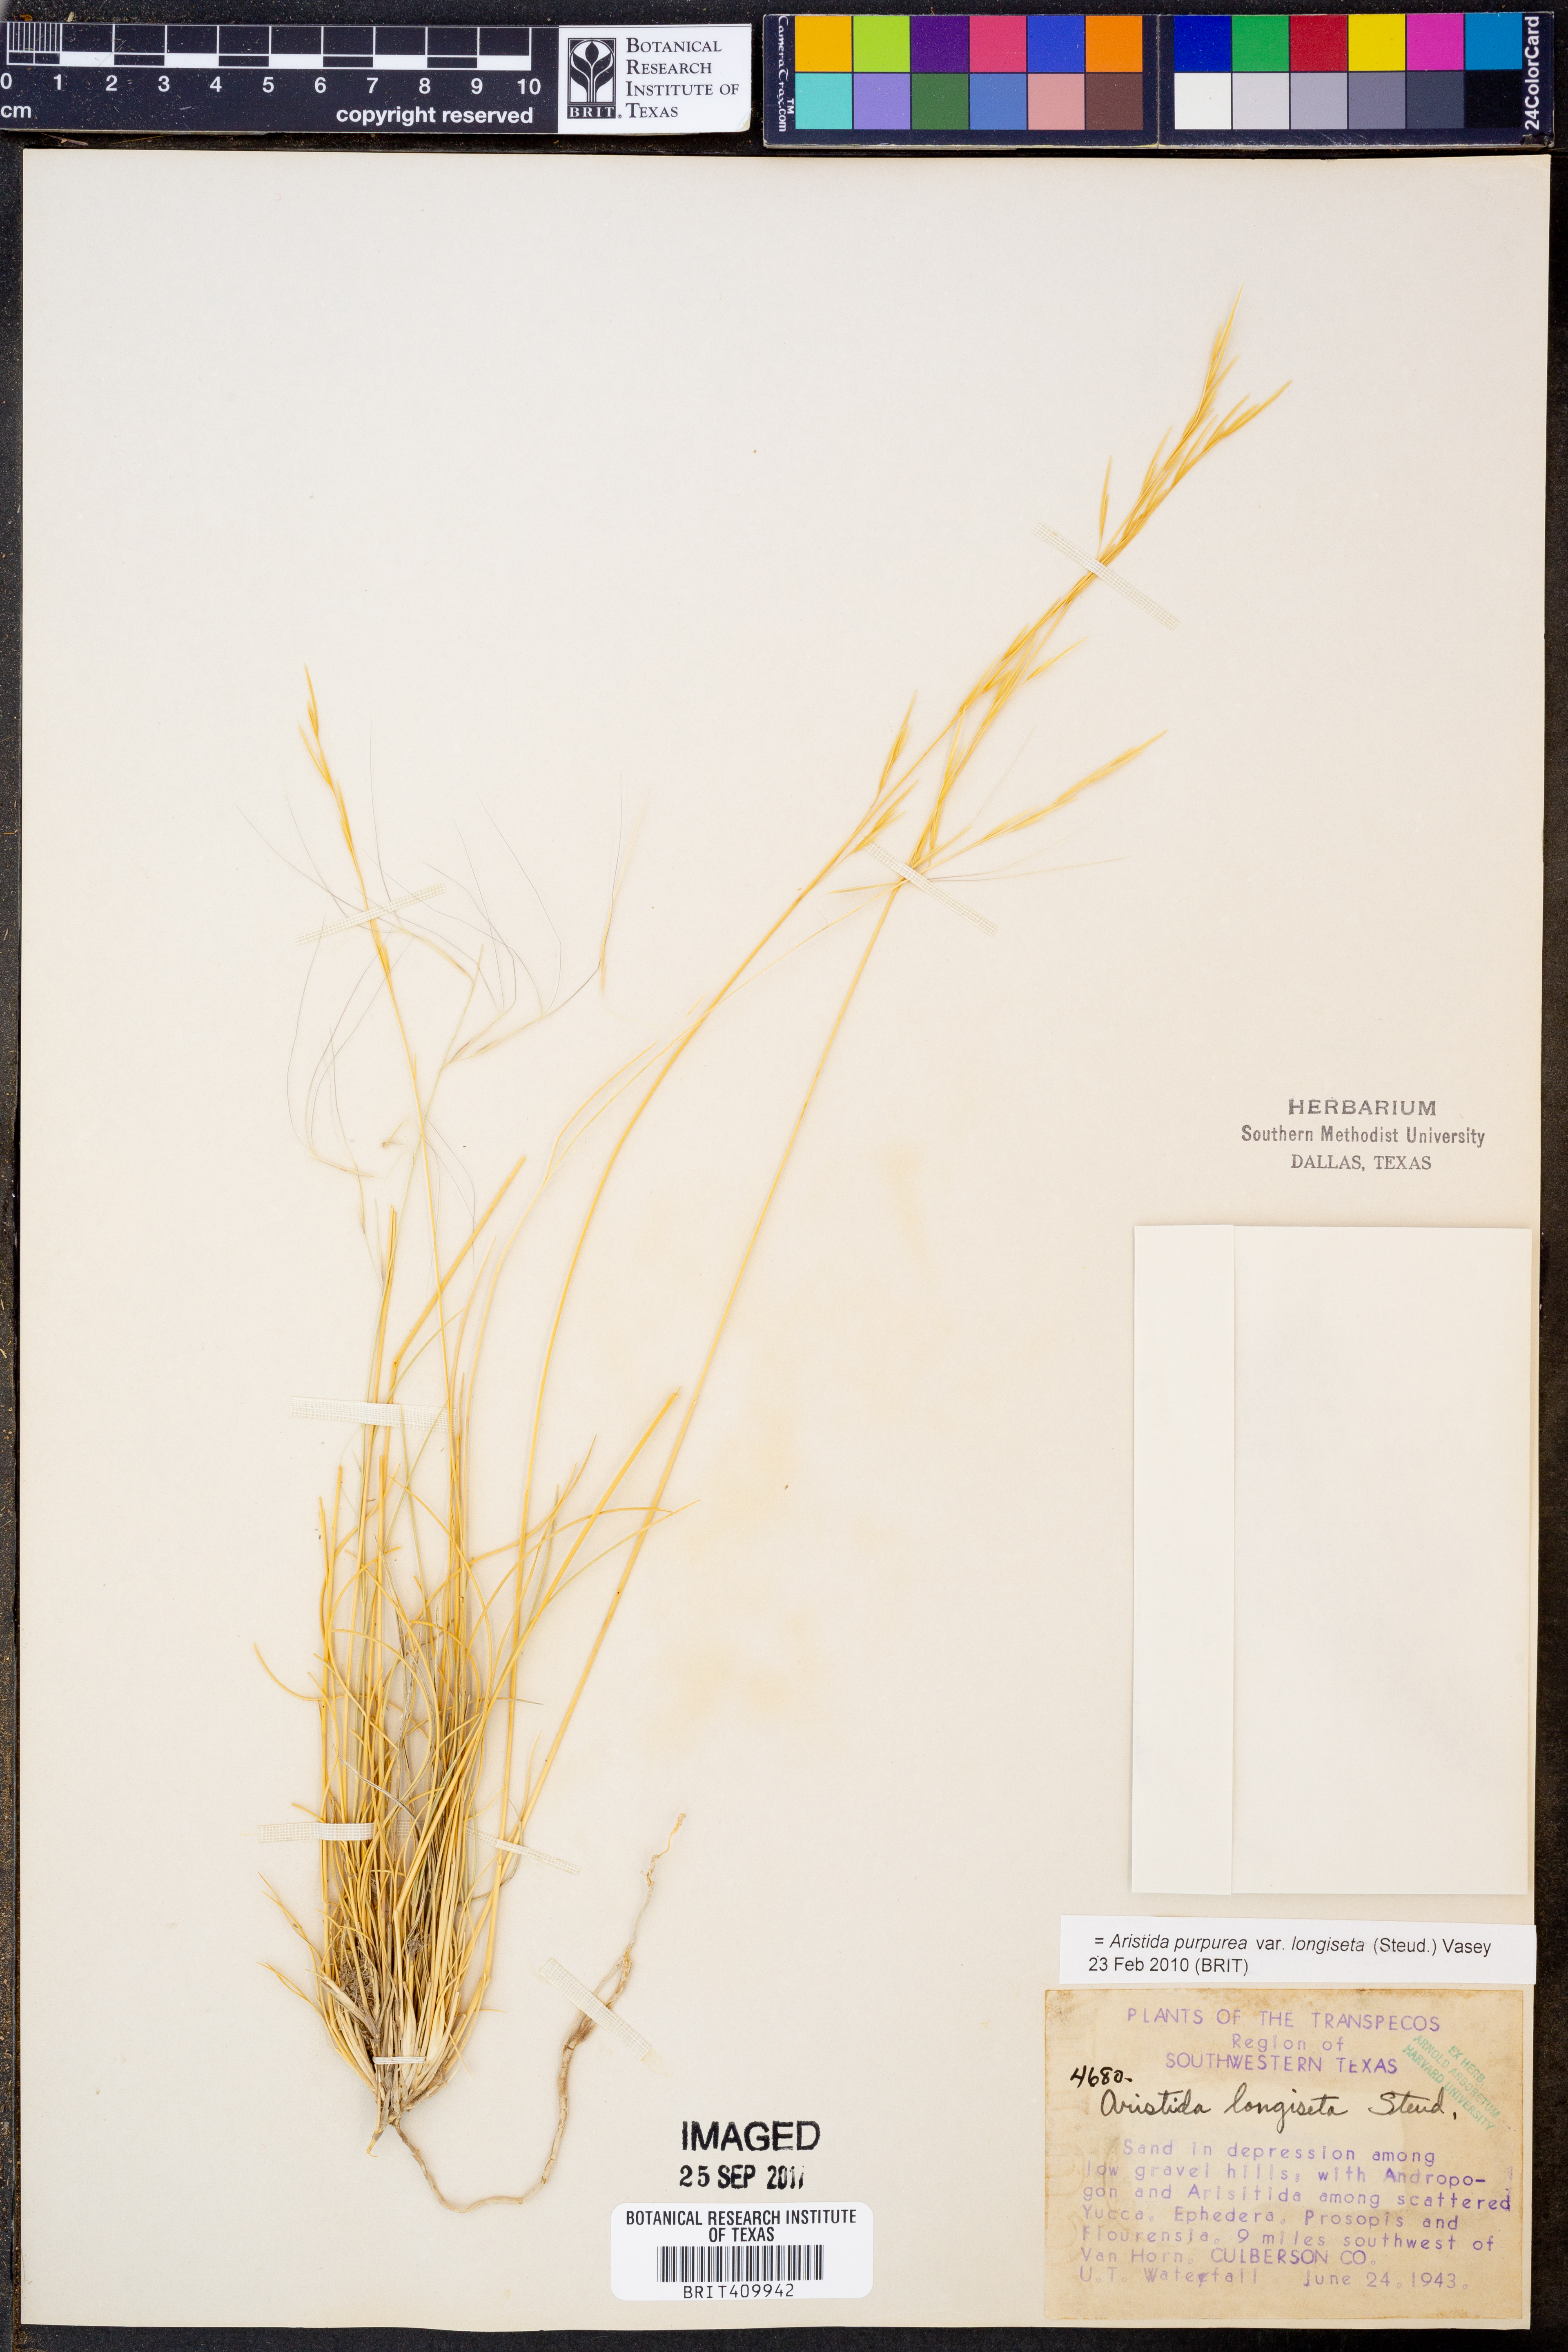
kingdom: Plantae
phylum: Tracheophyta
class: Liliopsida
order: Poales
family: Poaceae
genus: Aristida
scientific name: Aristida longiseta
